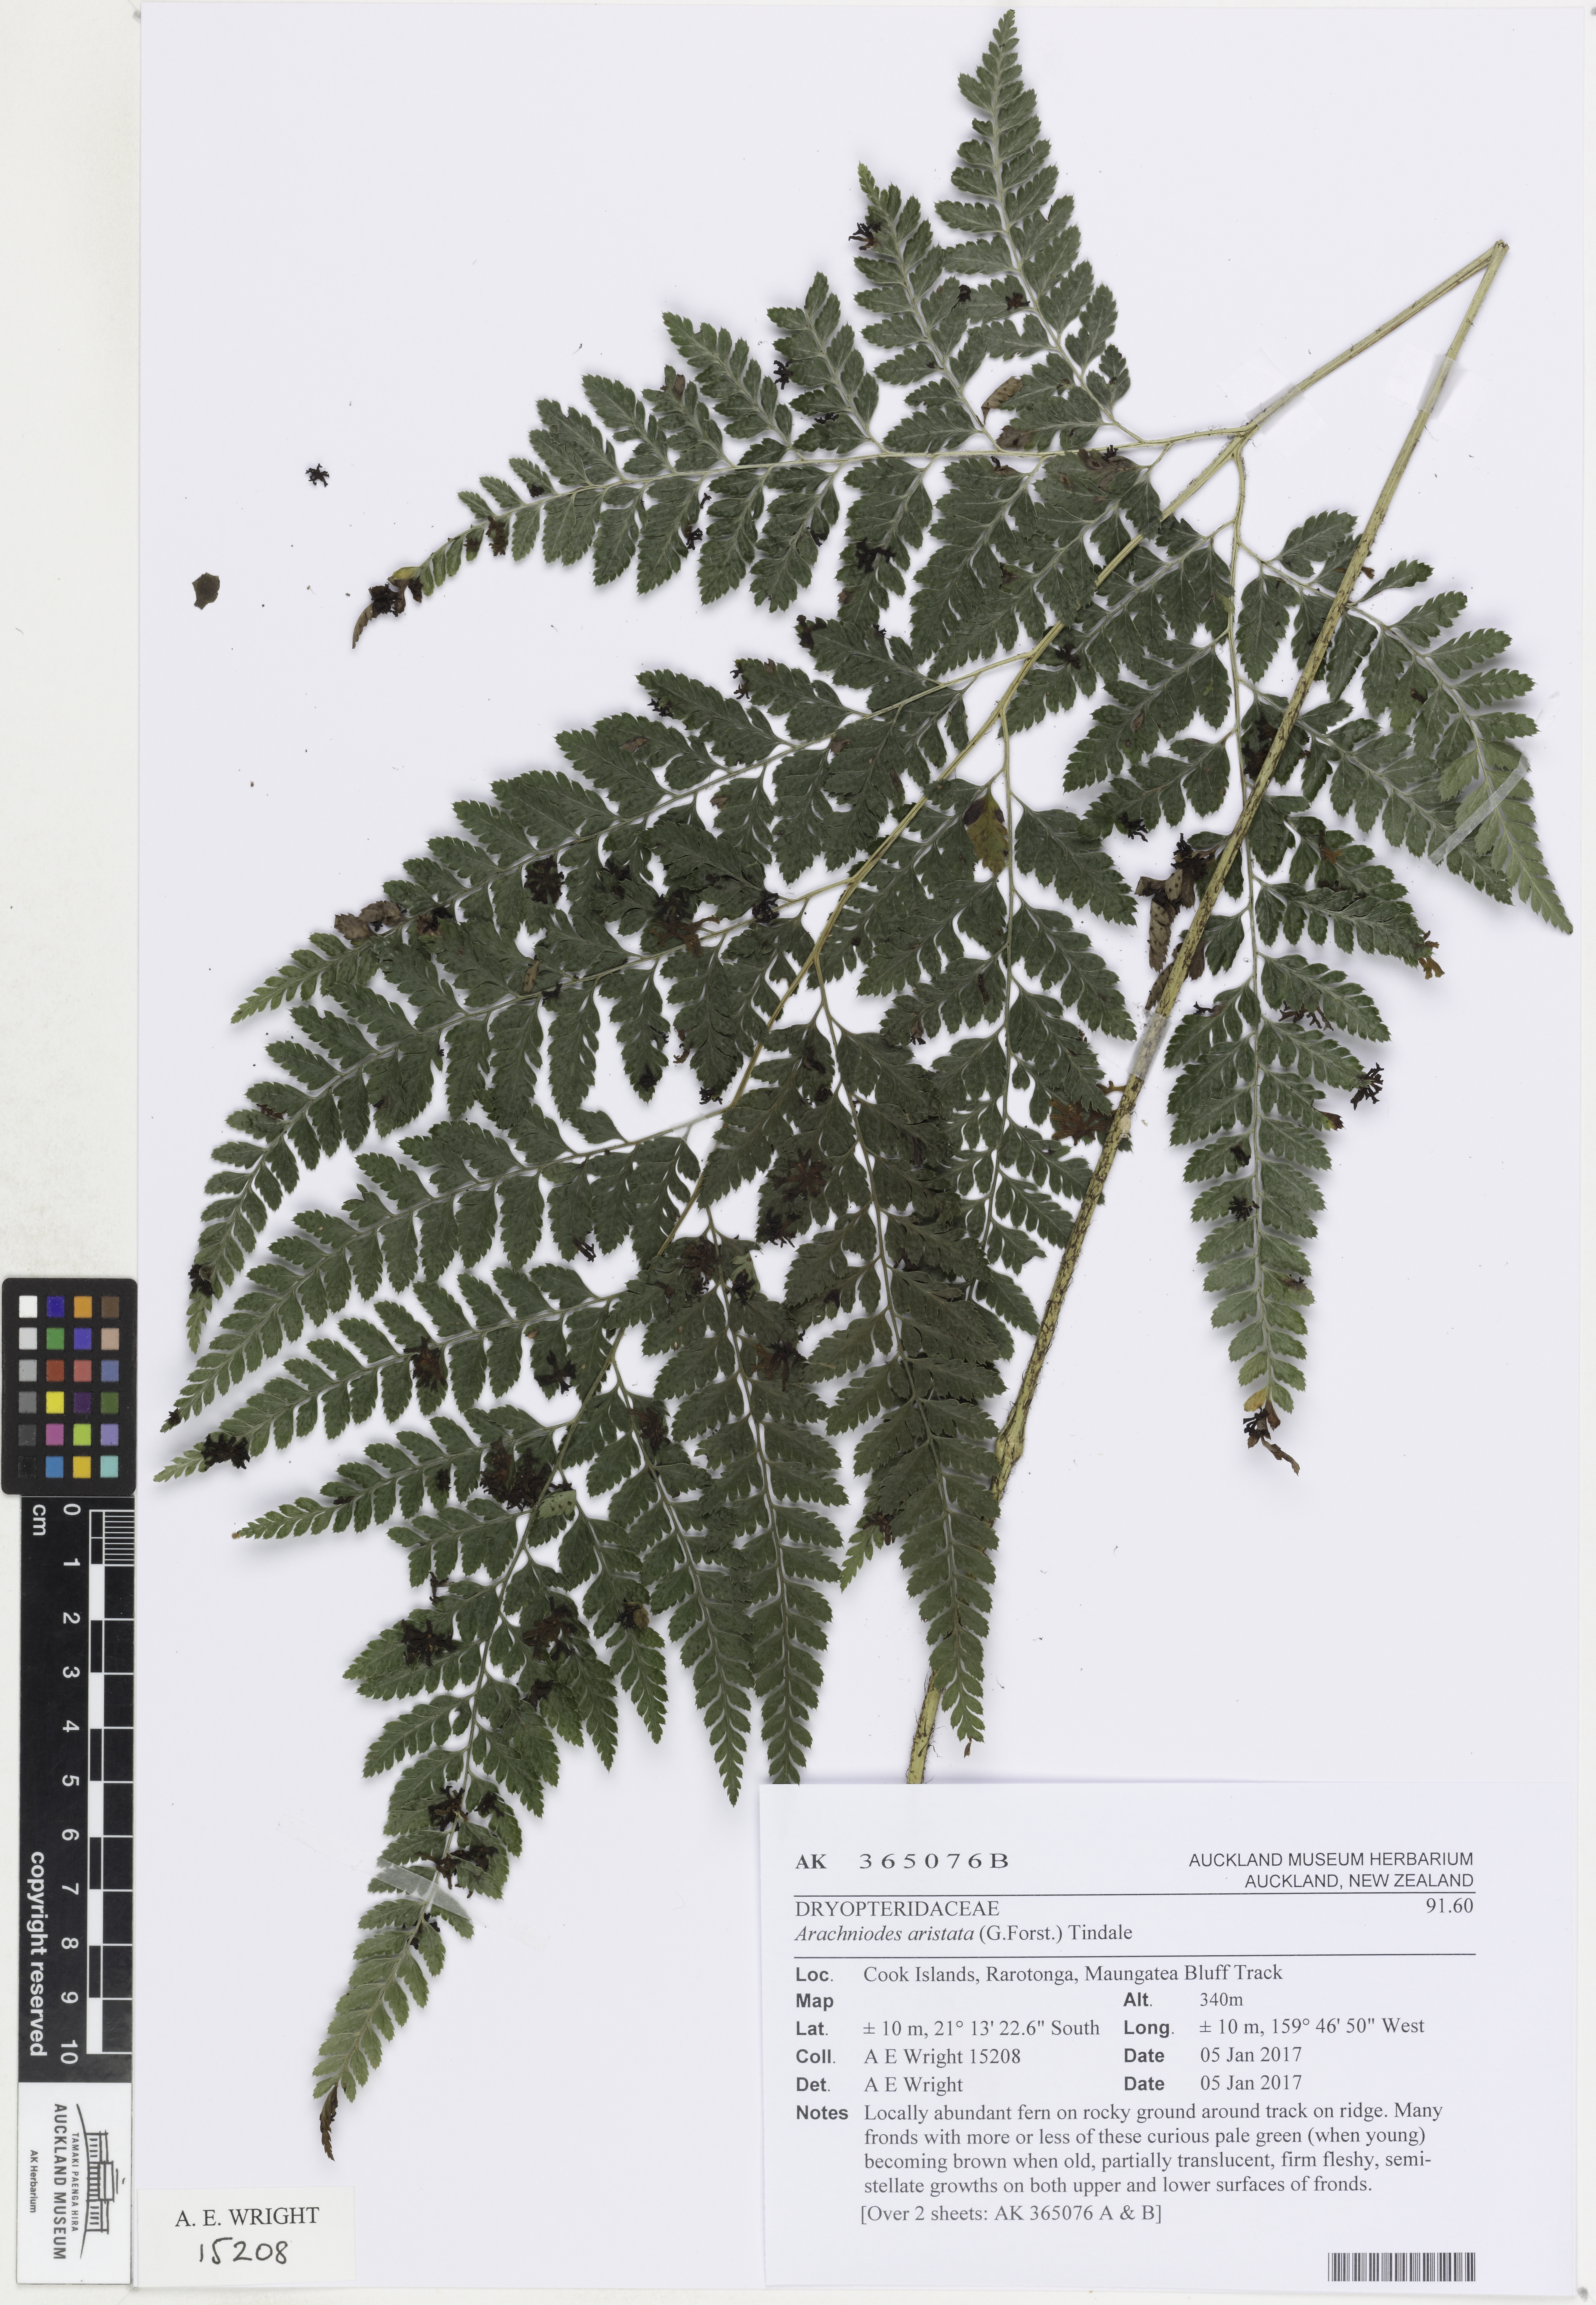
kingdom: Plantae
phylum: Tracheophyta
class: Polypodiopsida
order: Polypodiales
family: Dryopteridaceae
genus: Arachniodes
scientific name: Arachniodes aristata
